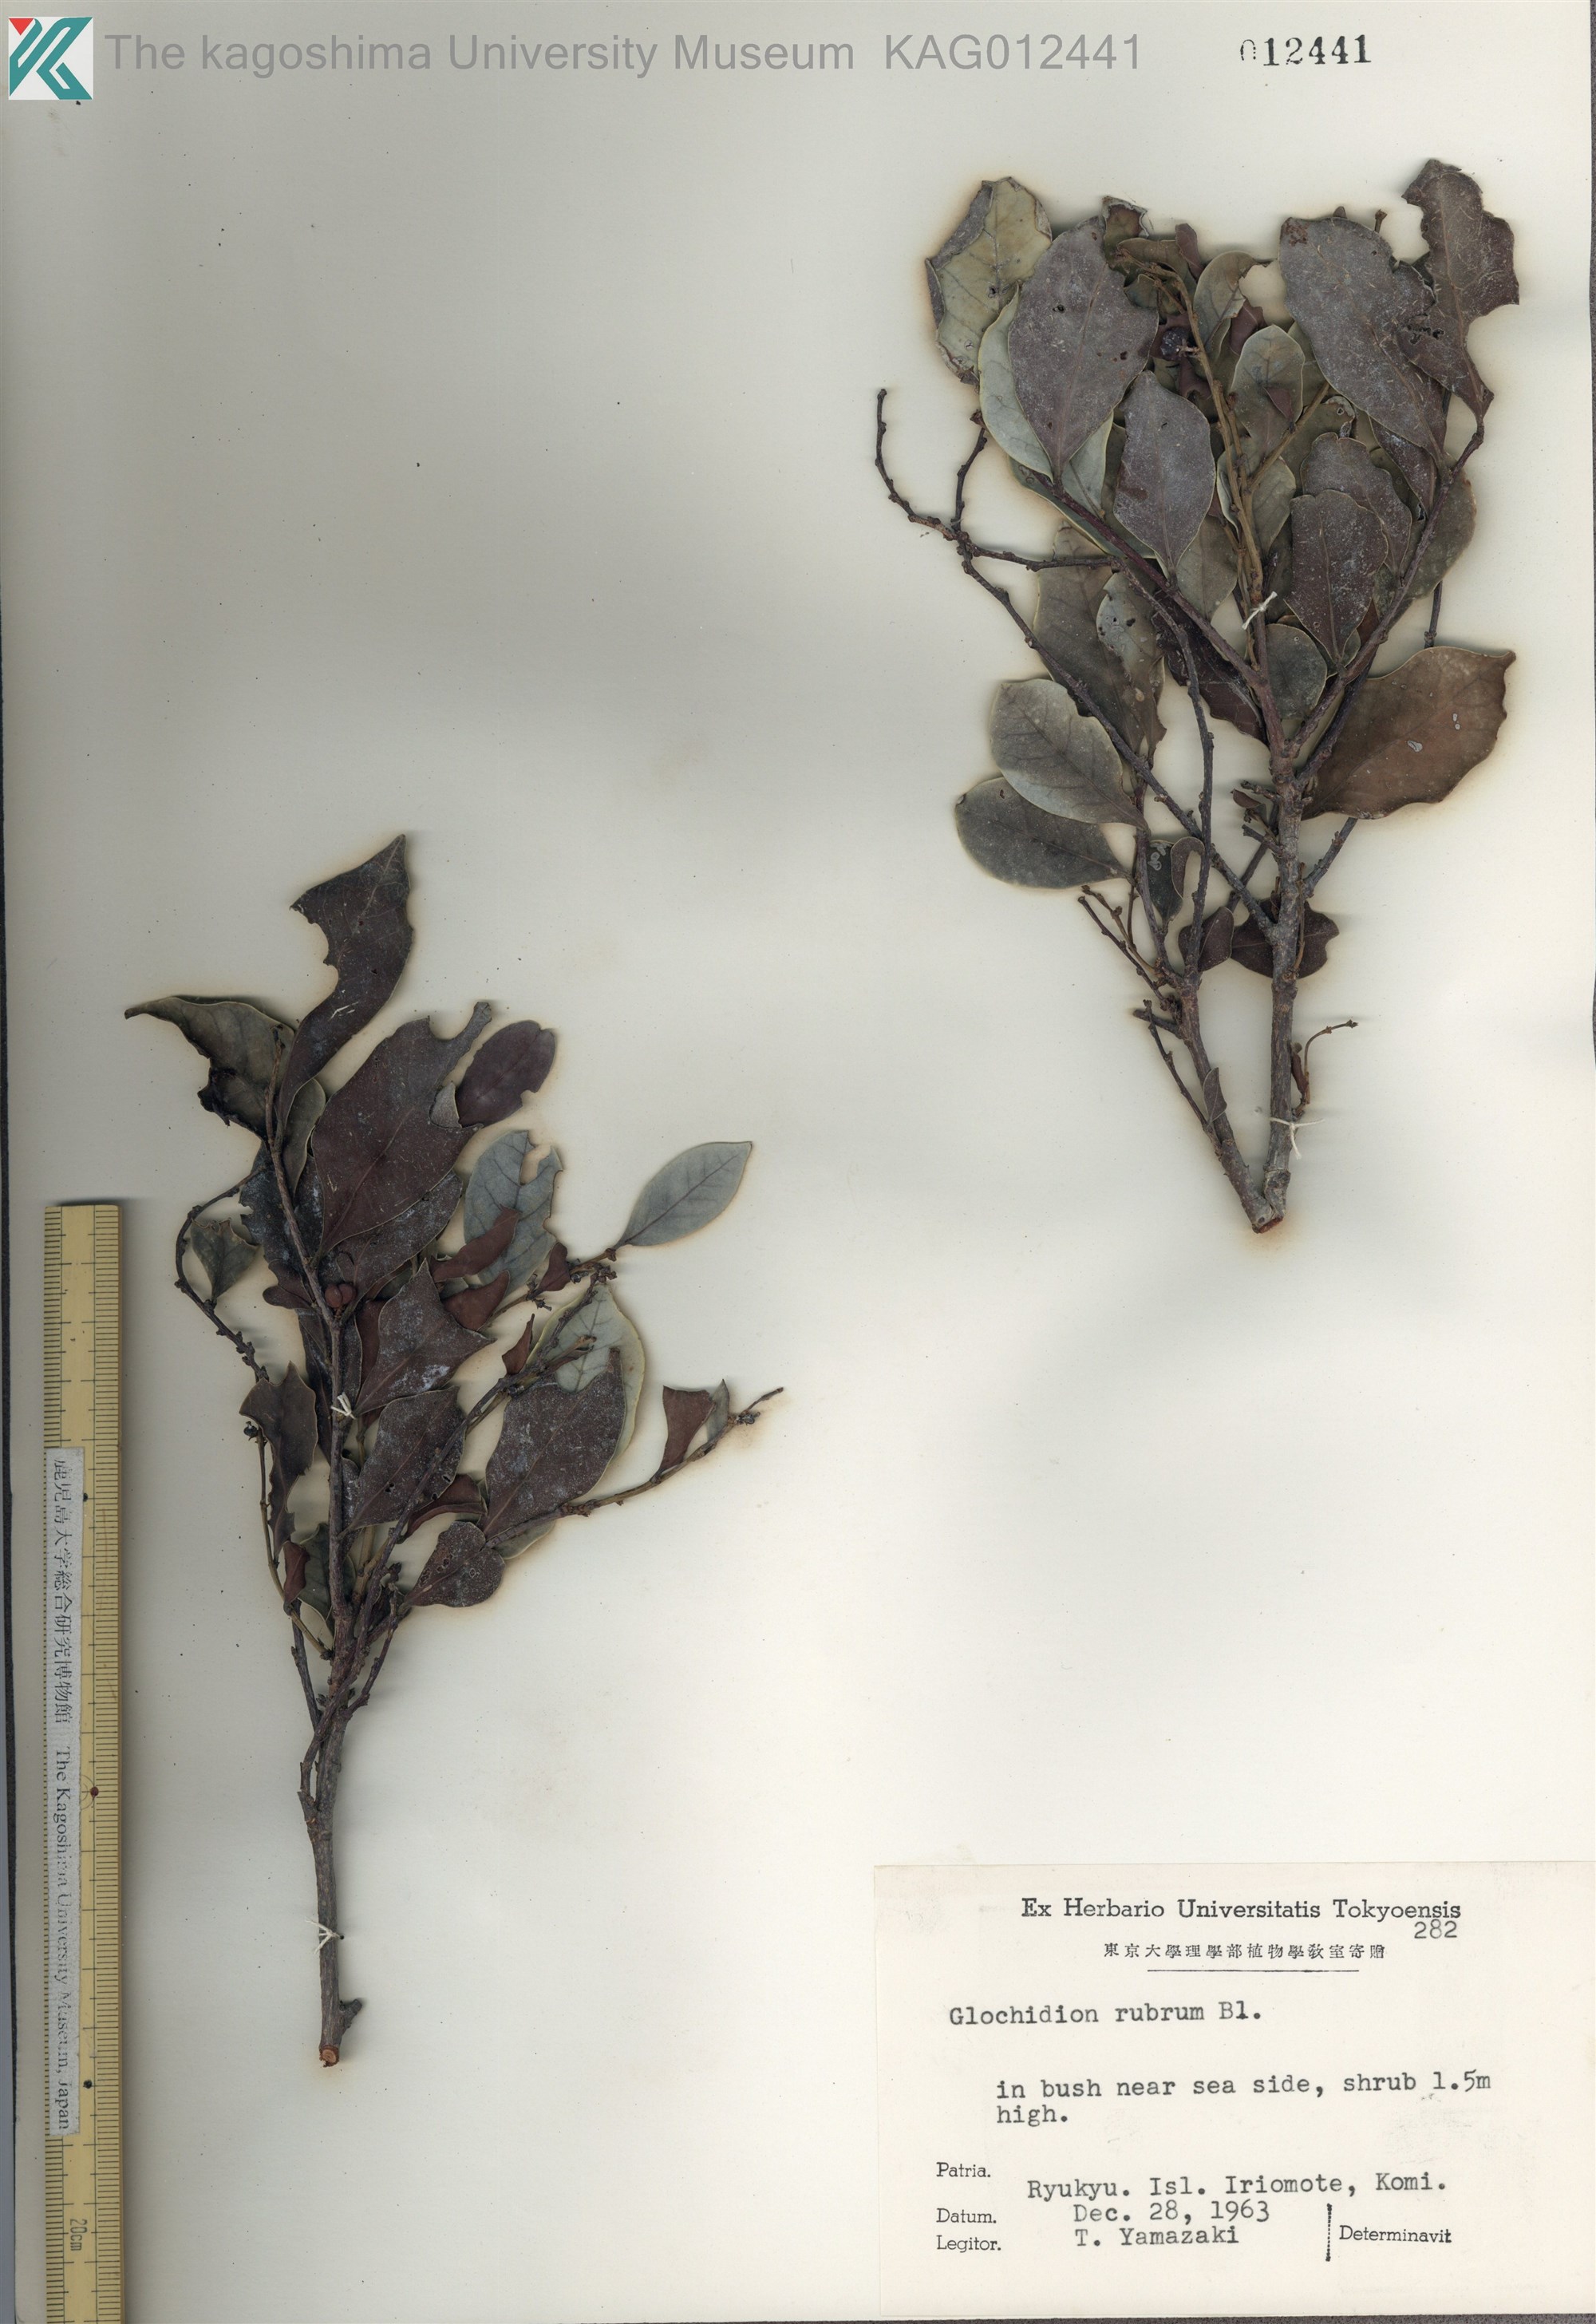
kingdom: Plantae
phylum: Tracheophyta
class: Magnoliopsida
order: Malpighiales
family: Phyllanthaceae
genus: Glochidion
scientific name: Glochidion rubrum
